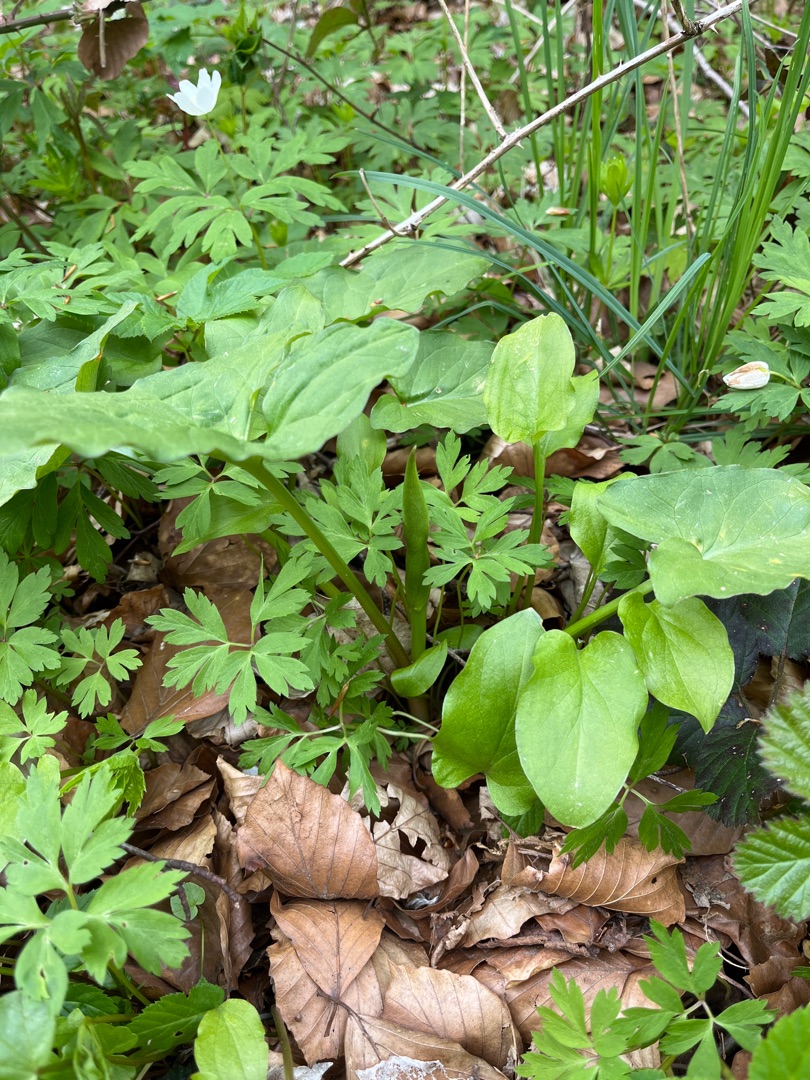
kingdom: Plantae
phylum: Tracheophyta
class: Liliopsida
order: Alismatales
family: Araceae
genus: Arum
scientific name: Arum
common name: Arumslægten
